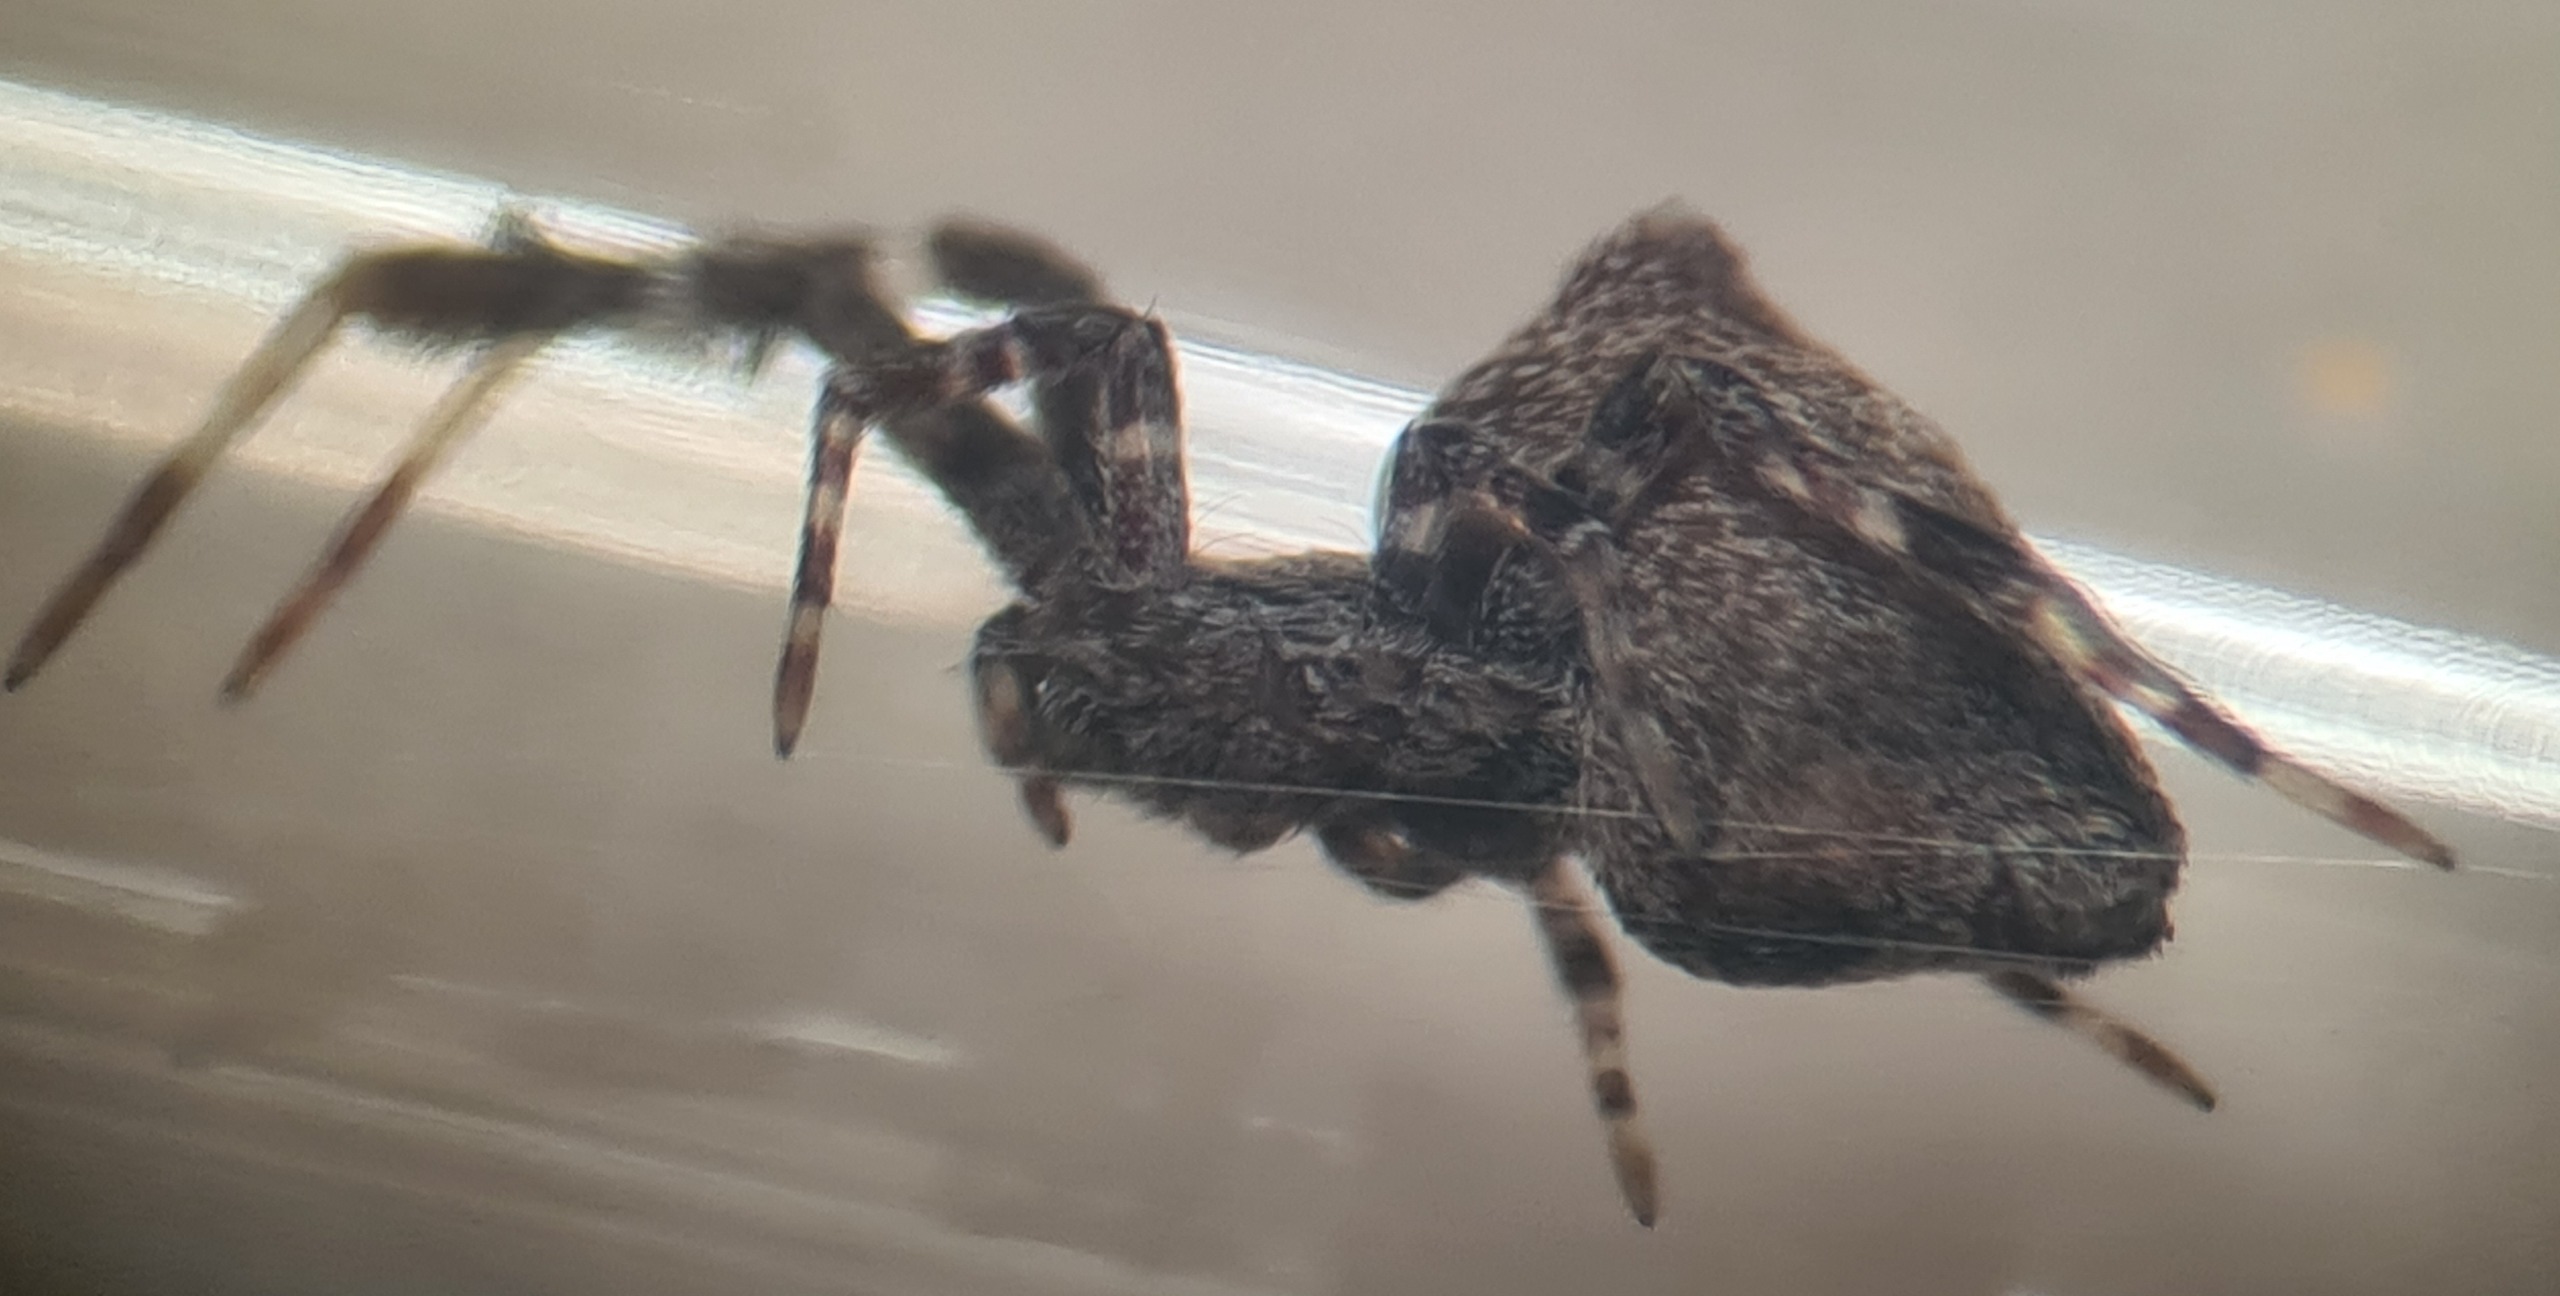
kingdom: Animalia
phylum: Arthropoda
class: Arachnida
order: Araneae
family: Uloboridae
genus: Uloborus
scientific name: Uloborus plumipes
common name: Fjerbenet edderkop
